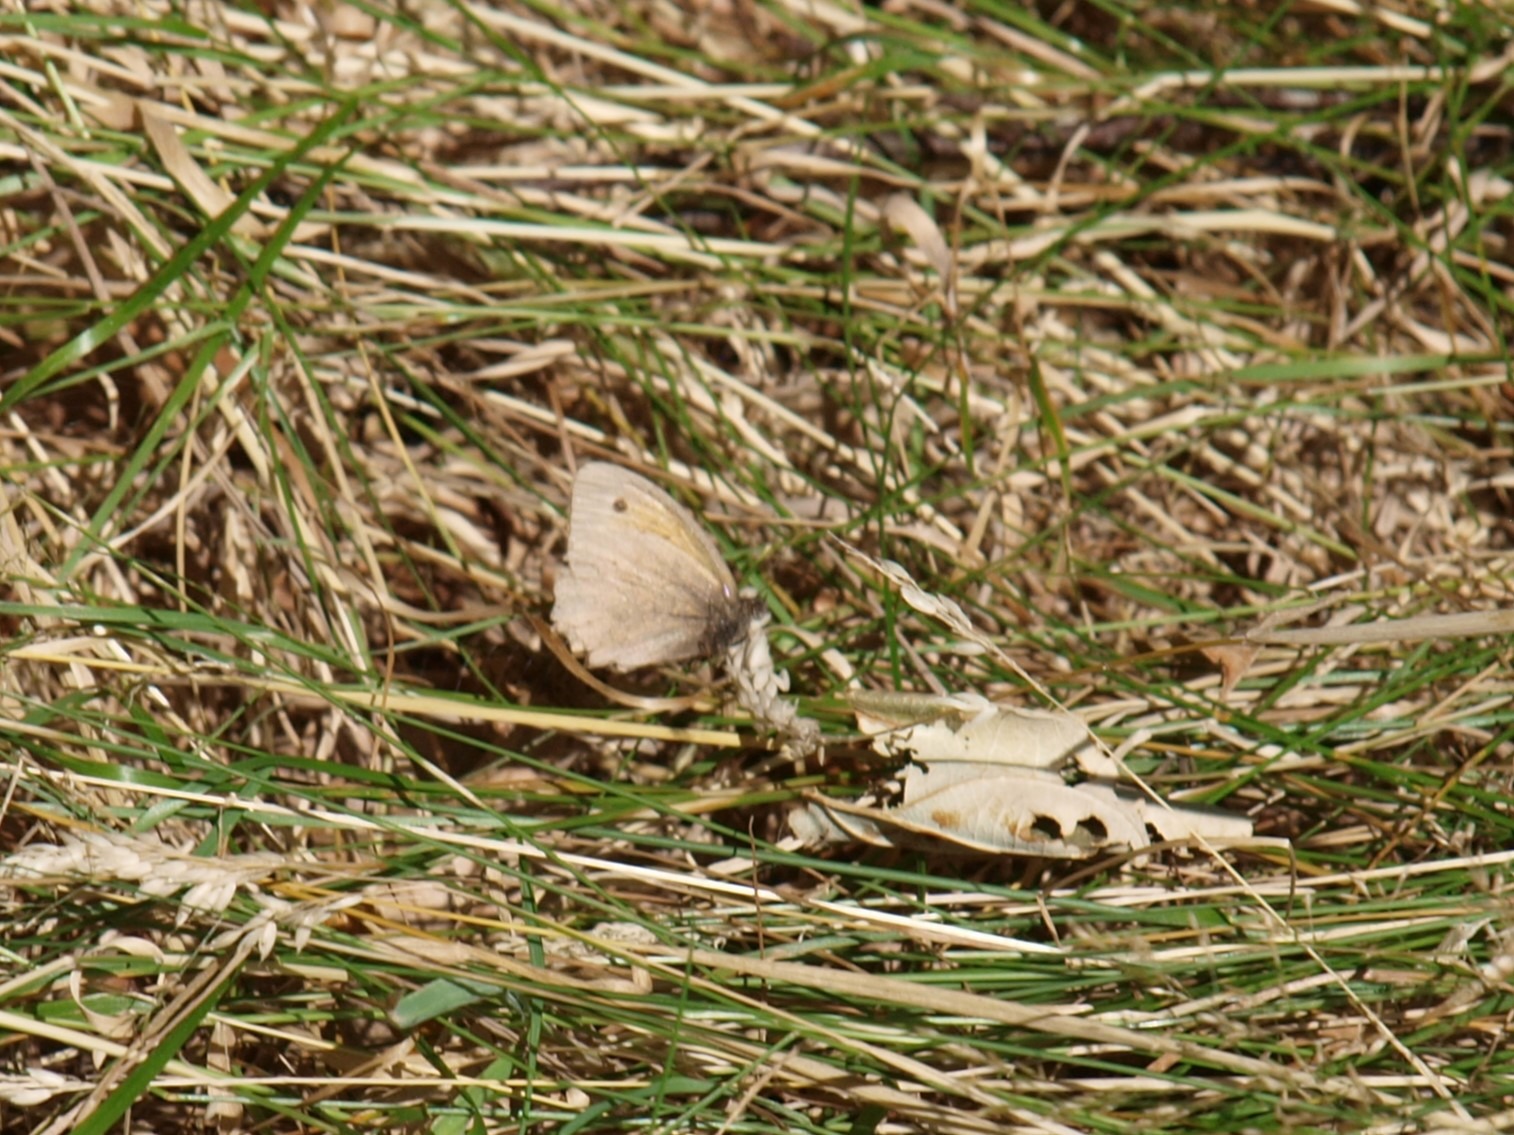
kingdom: Animalia
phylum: Arthropoda
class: Insecta
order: Lepidoptera
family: Nymphalidae
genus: Maniola
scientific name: Maniola jurtina
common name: Græsrandøje
